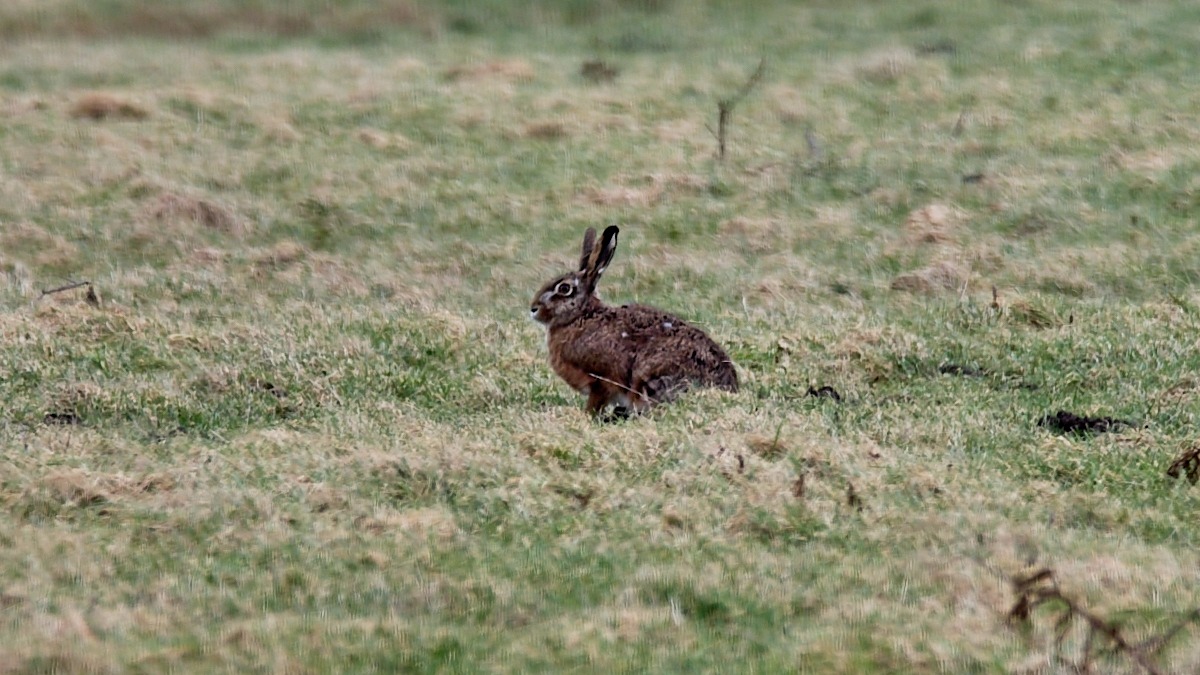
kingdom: Animalia
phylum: Chordata
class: Mammalia
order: Lagomorpha
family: Leporidae
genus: Lepus
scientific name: Lepus europaeus
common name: Hare
